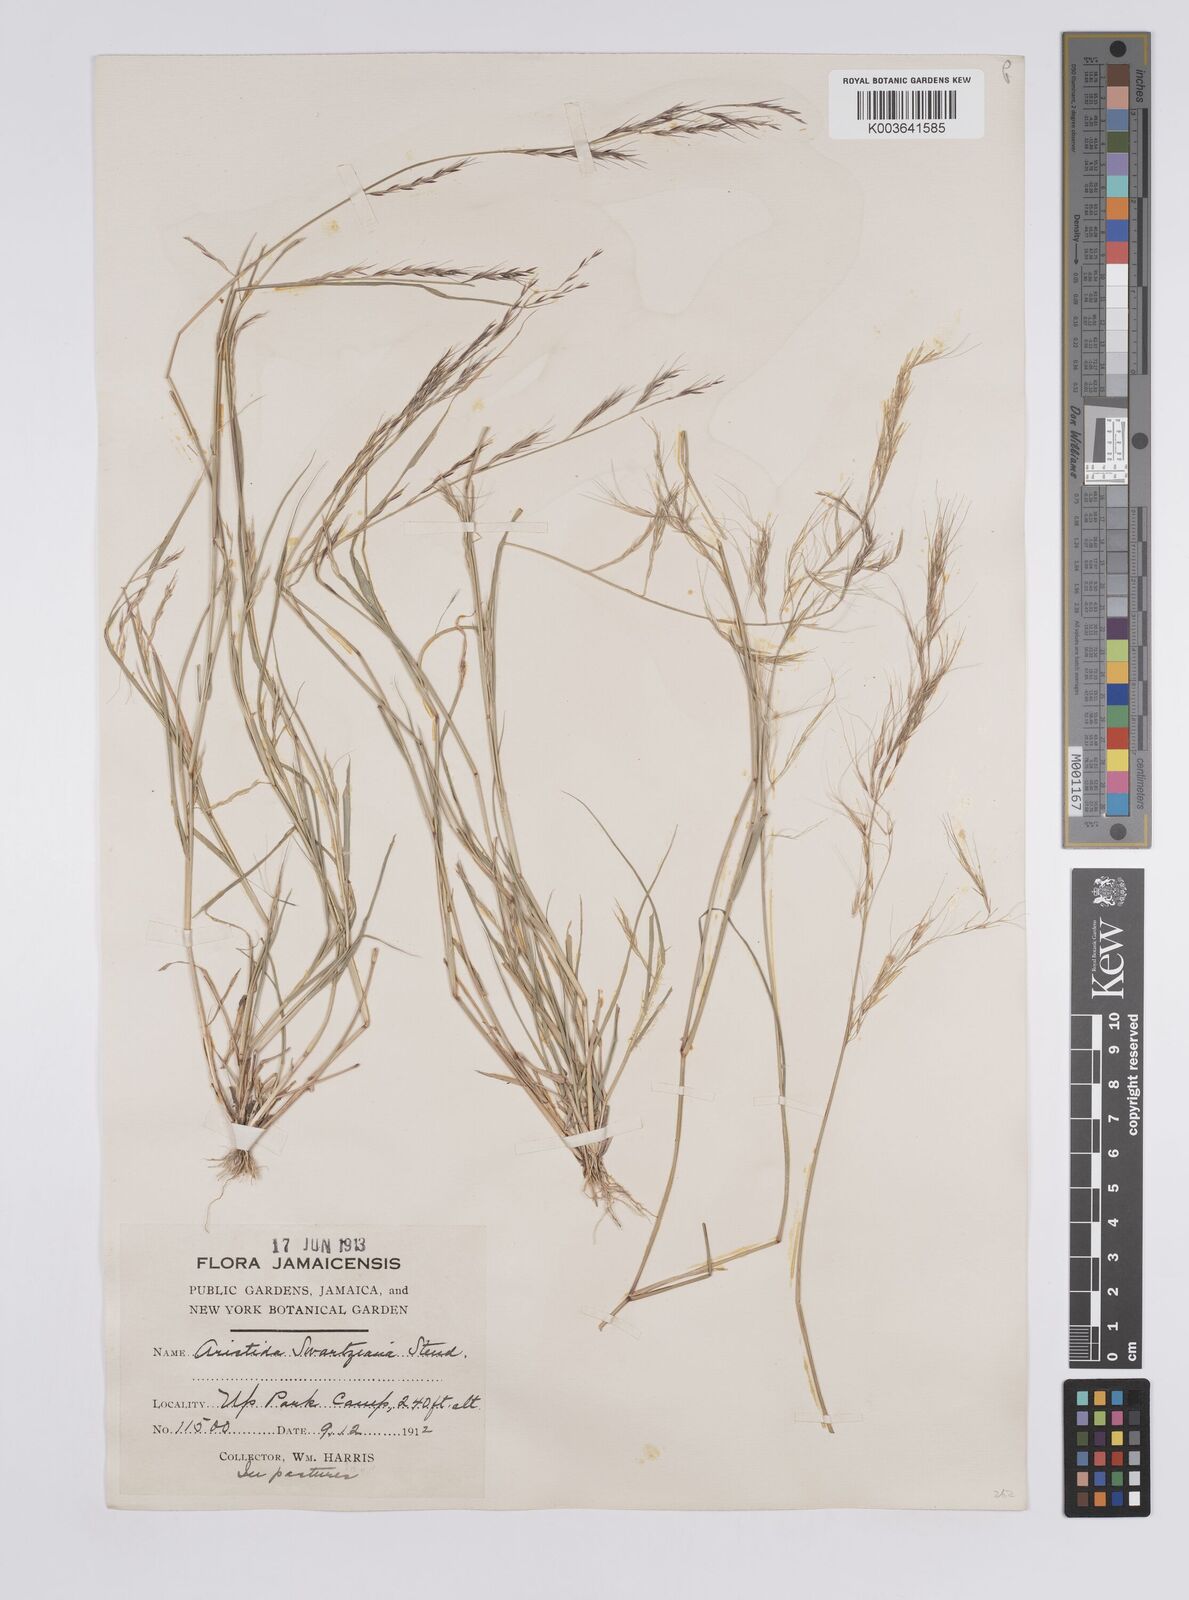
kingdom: Plantae
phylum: Tracheophyta
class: Liliopsida
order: Poales
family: Poaceae
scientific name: Poaceae
